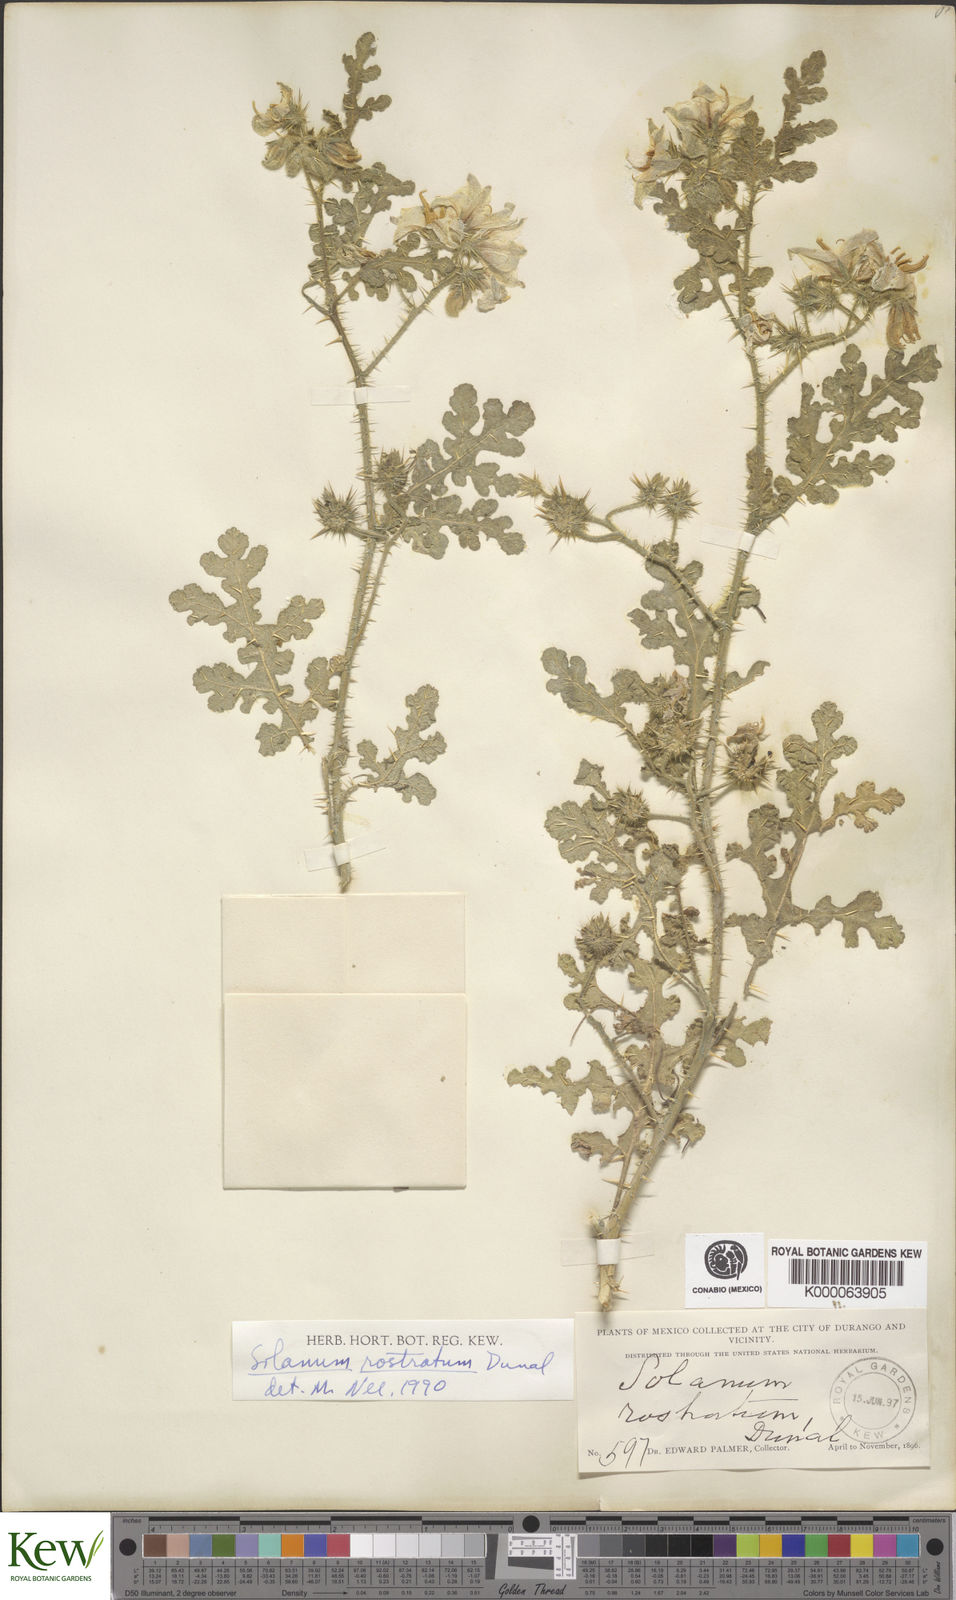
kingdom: Plantae
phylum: Tracheophyta
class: Magnoliopsida
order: Solanales
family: Solanaceae
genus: Solanum
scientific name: Solanum angustifolium
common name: Buffalobur nightshade
